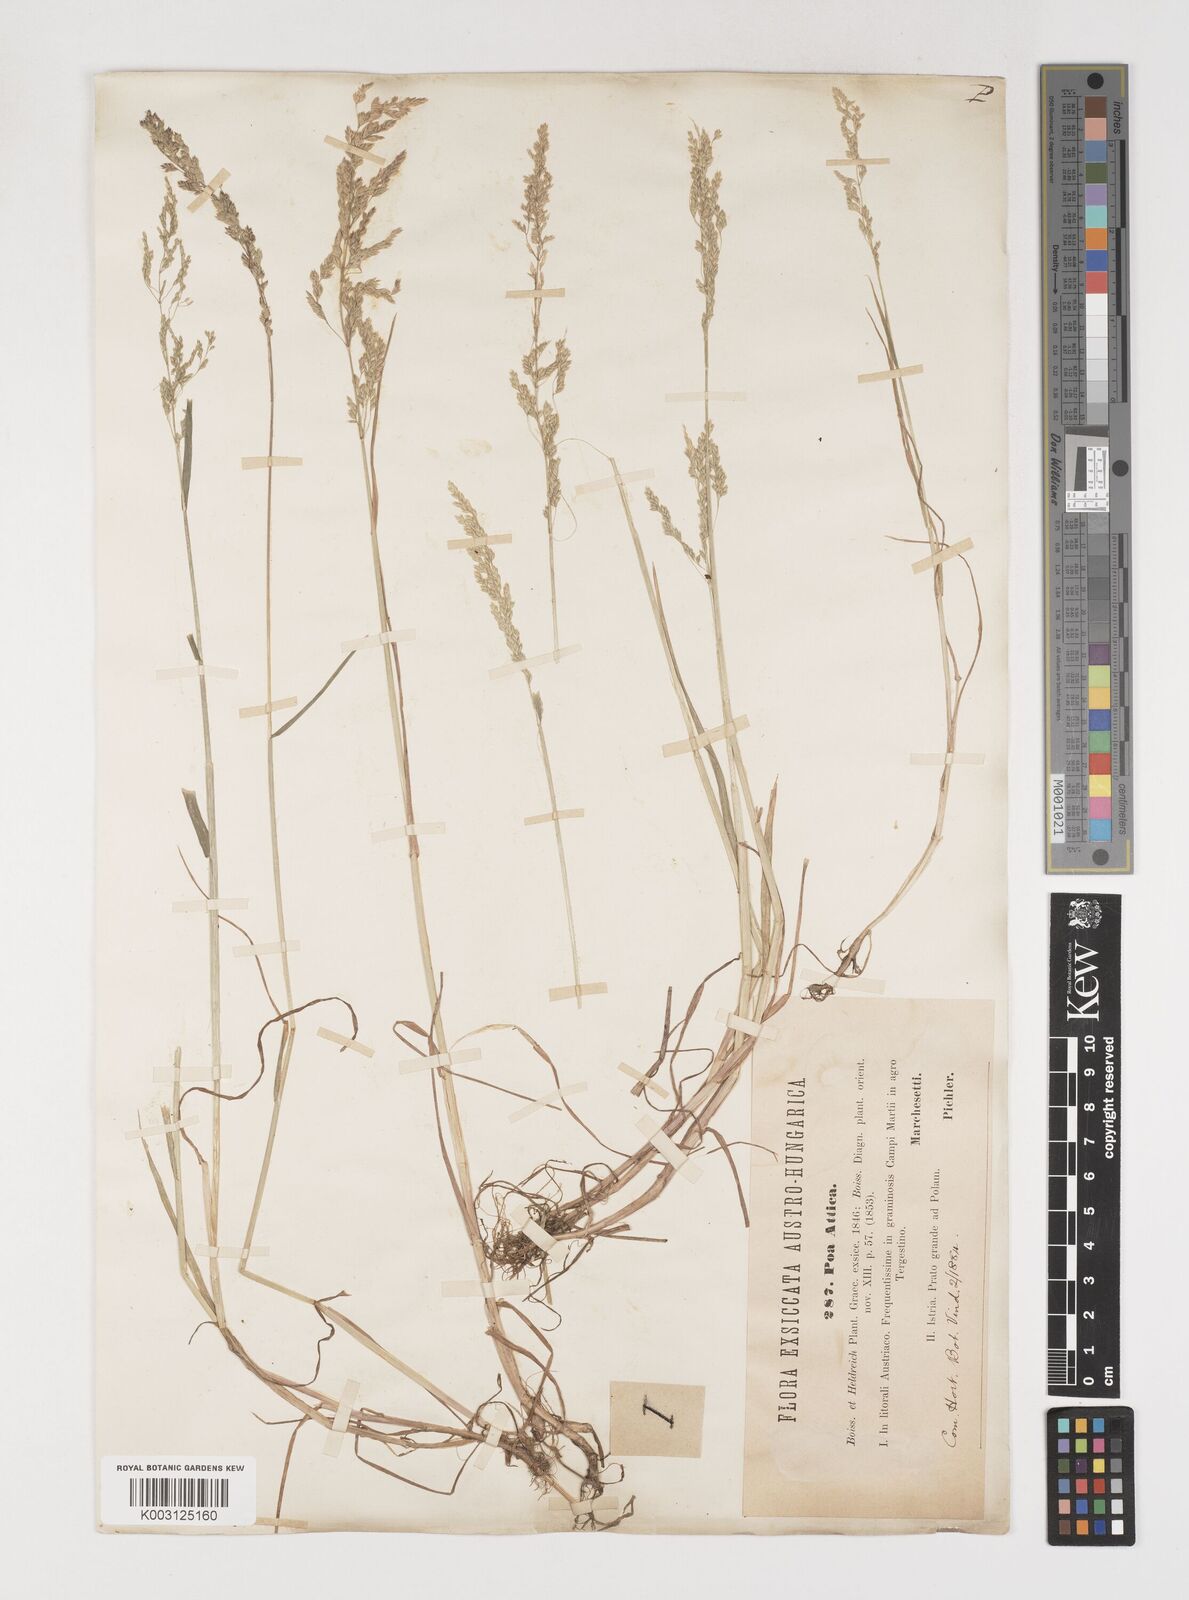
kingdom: Plantae
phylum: Tracheophyta
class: Liliopsida
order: Poales
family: Poaceae
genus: Poa
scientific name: Poa trivialis
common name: Rough bluegrass
